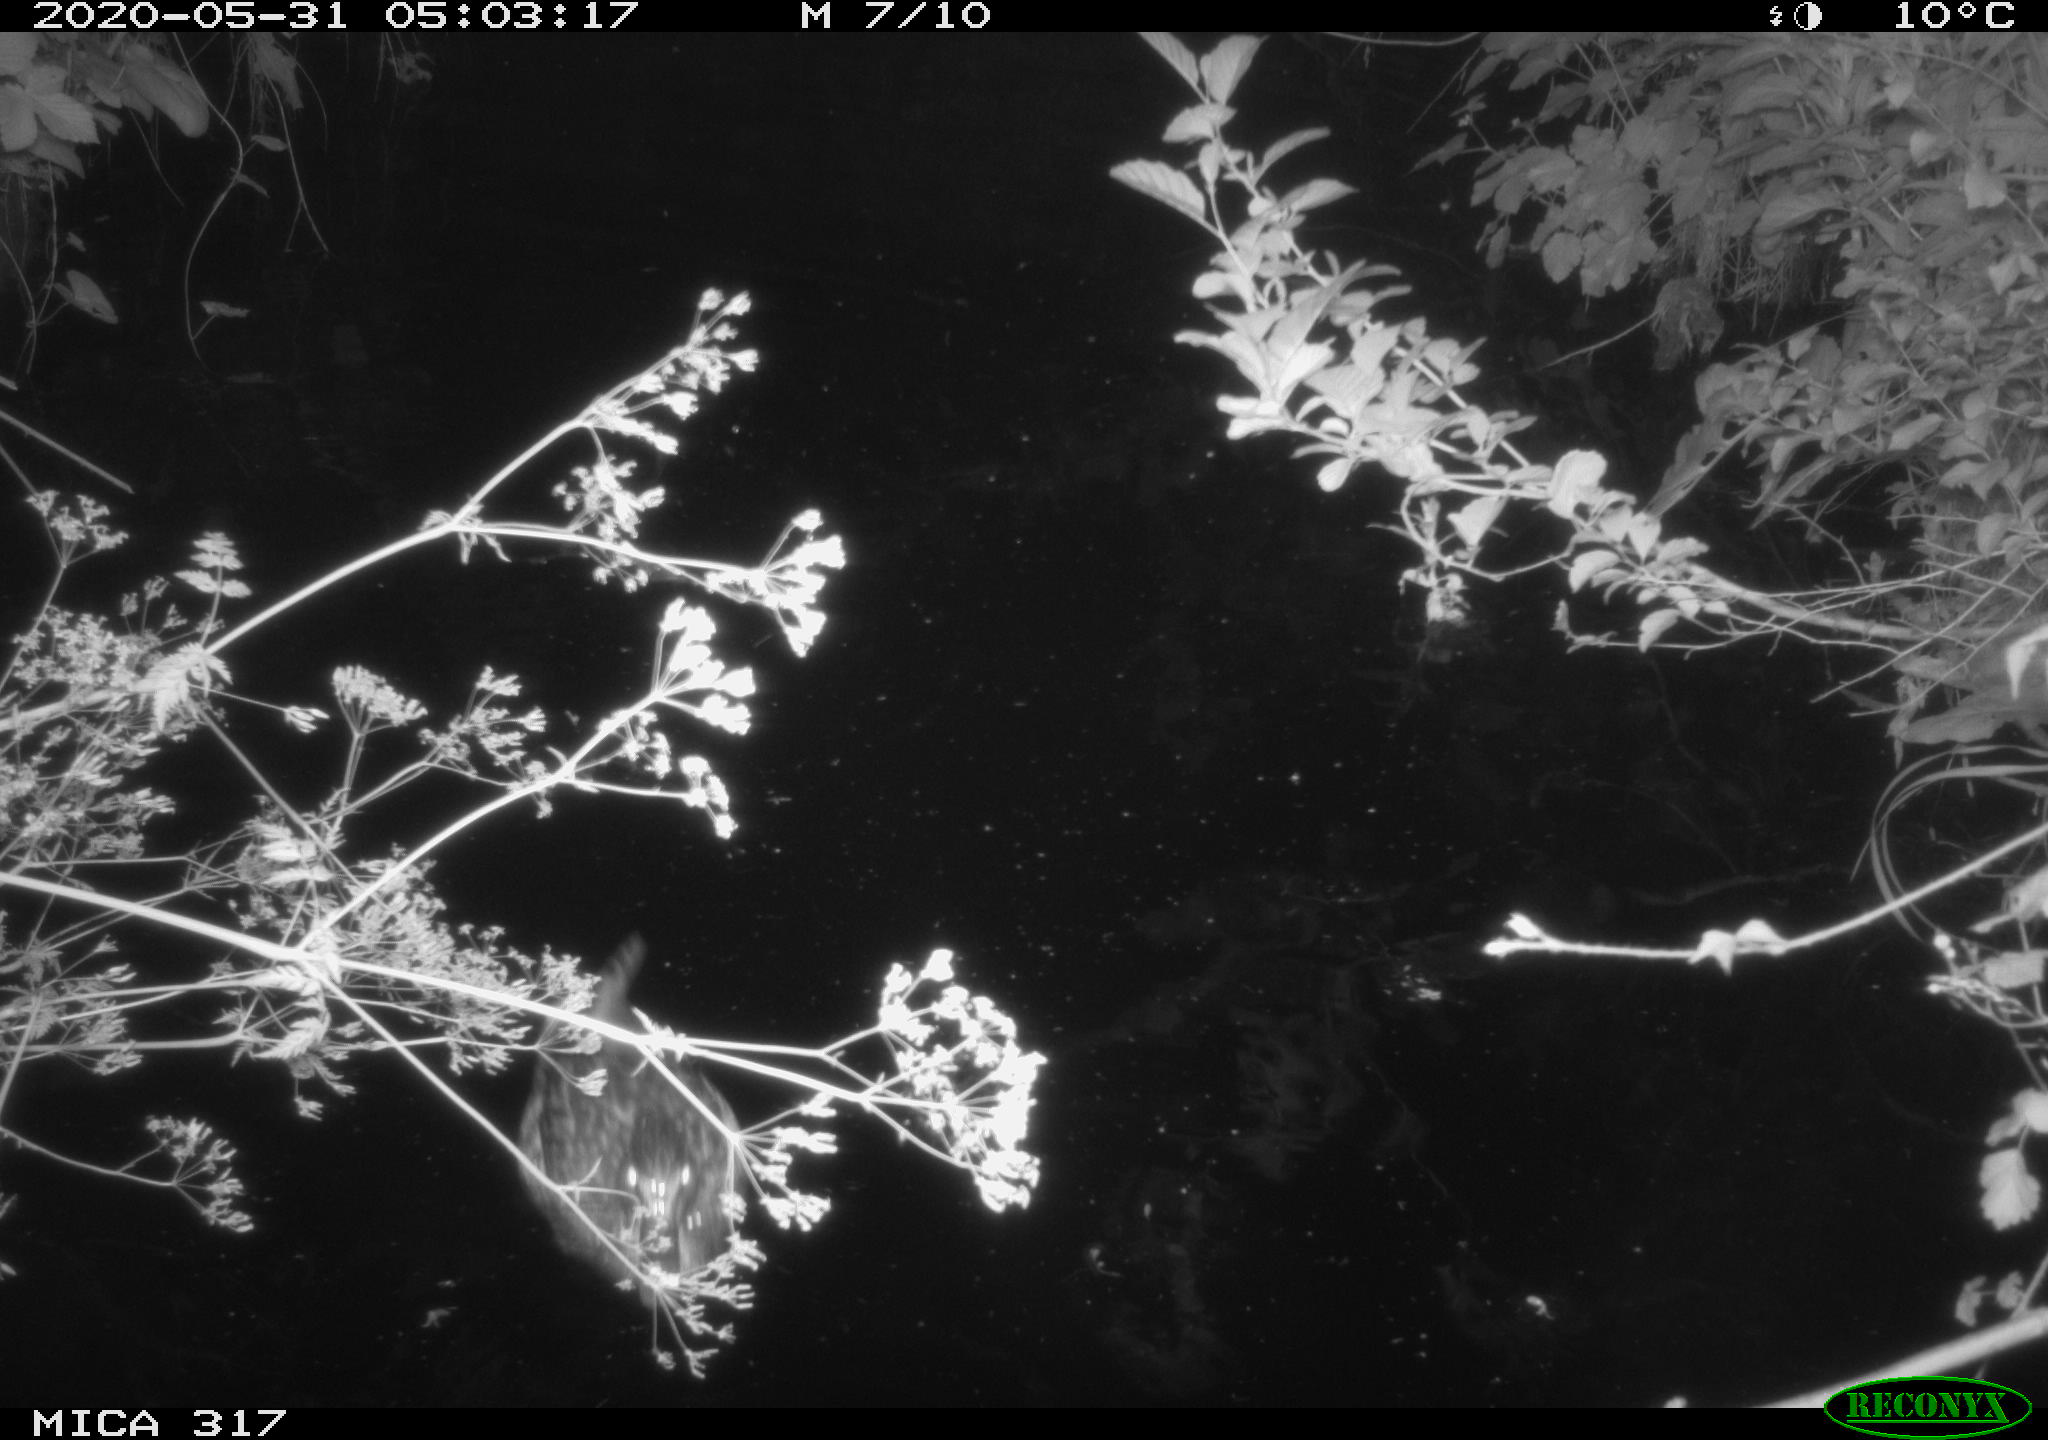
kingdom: Animalia
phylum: Chordata
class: Aves
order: Anseriformes
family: Anatidae
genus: Anas
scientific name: Anas platyrhynchos
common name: Mallard
